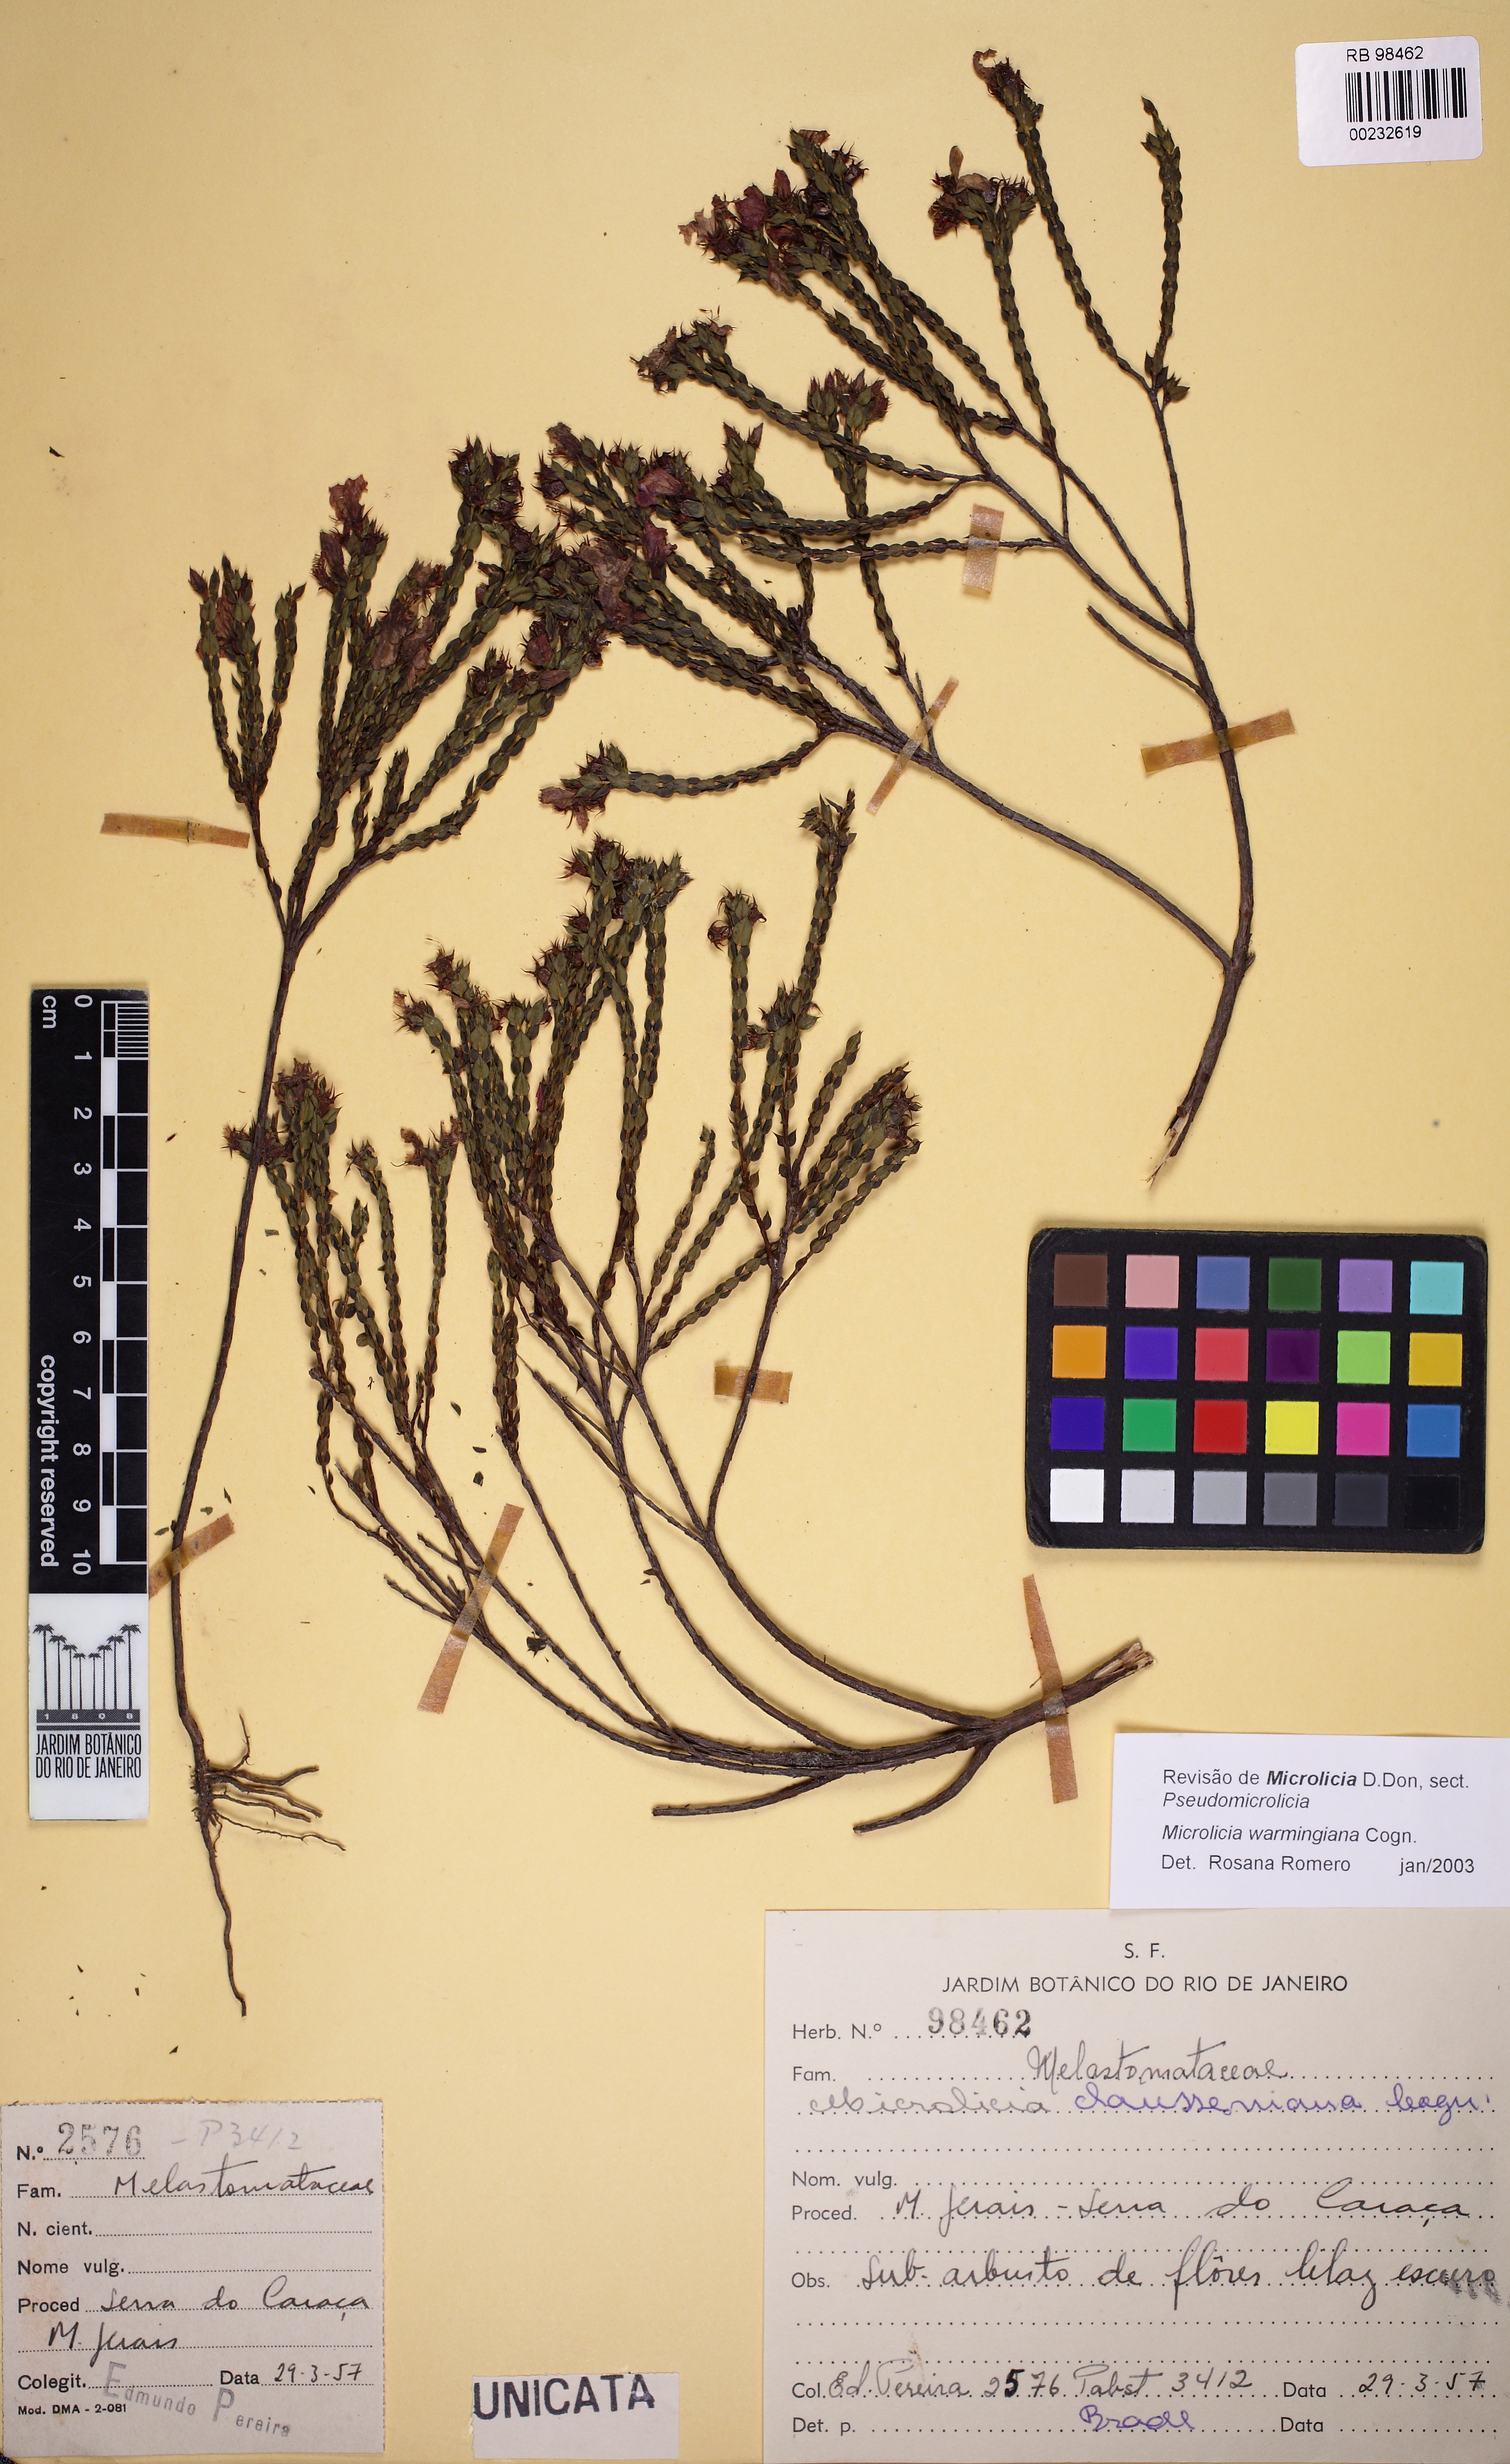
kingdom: Plantae
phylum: Tracheophyta
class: Magnoliopsida
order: Myrtales
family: Melastomataceae
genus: Microlicia
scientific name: Microlicia warmingiana
